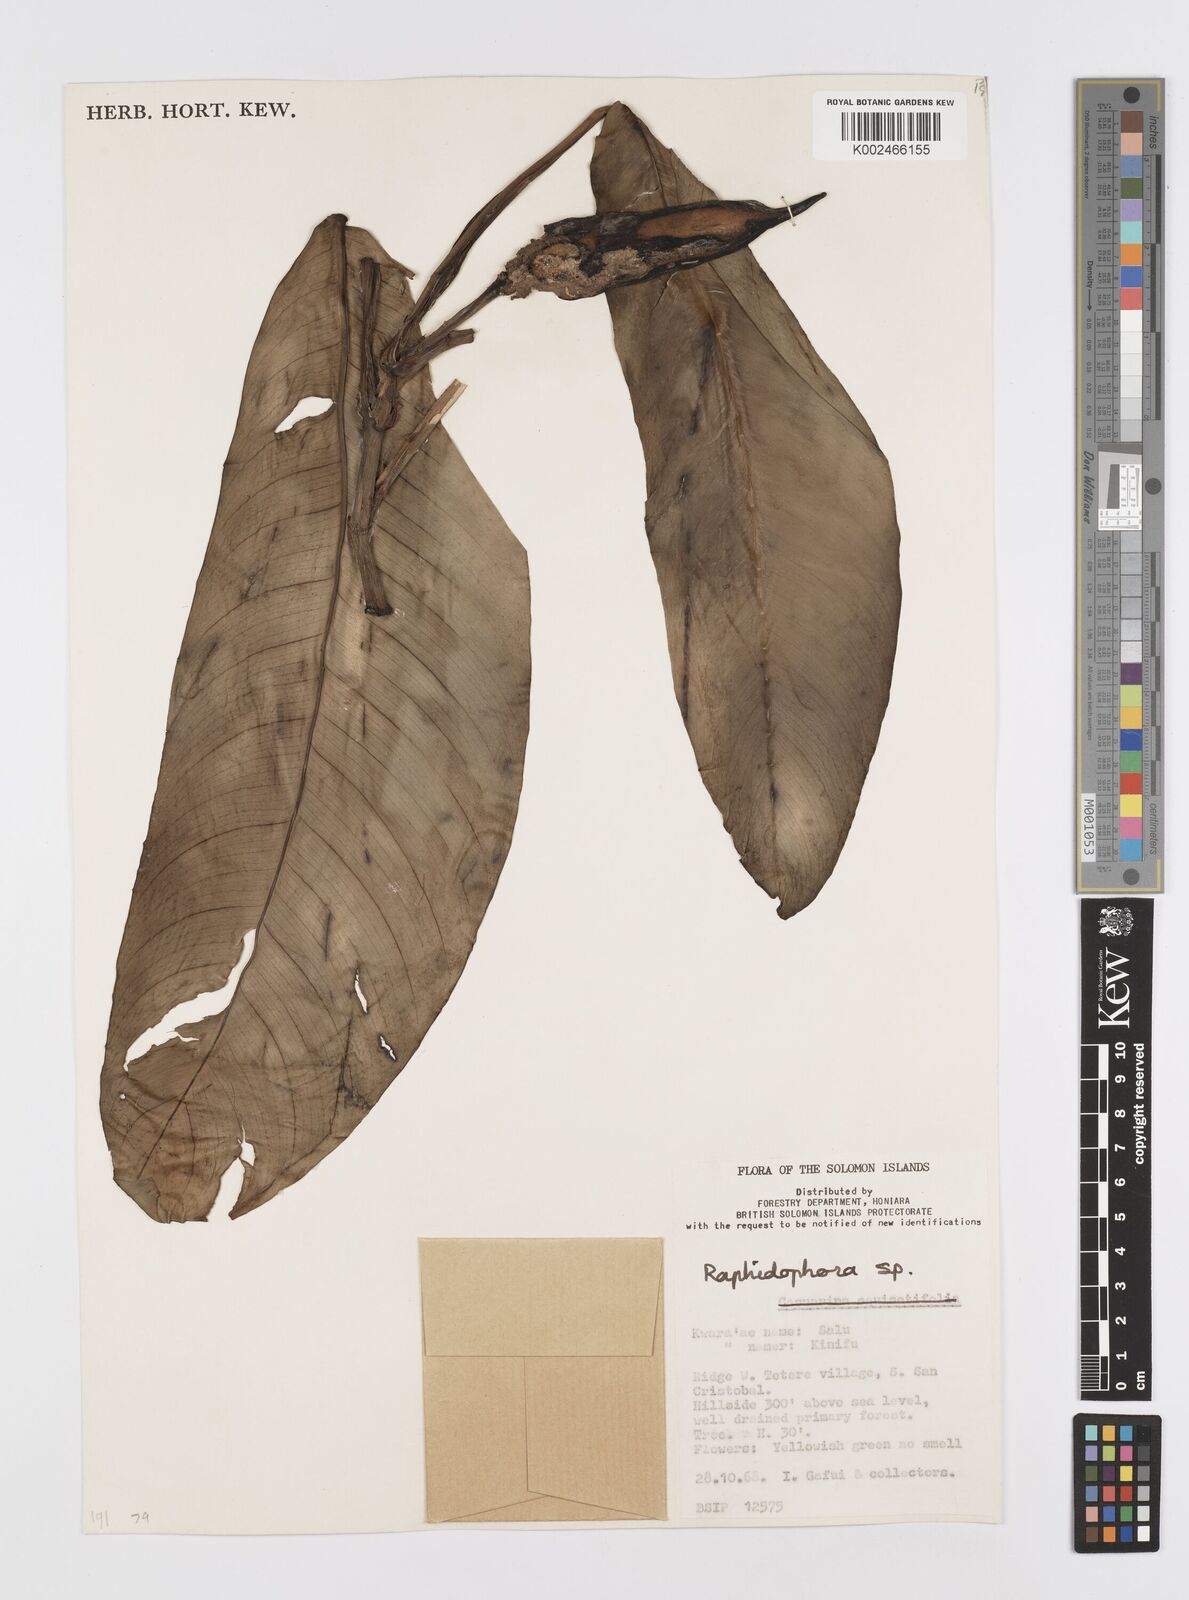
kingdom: Plantae
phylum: Tracheophyta
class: Liliopsida
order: Alismatales
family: Araceae
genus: Rhaphidophora
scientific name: Rhaphidophora schlechteri
